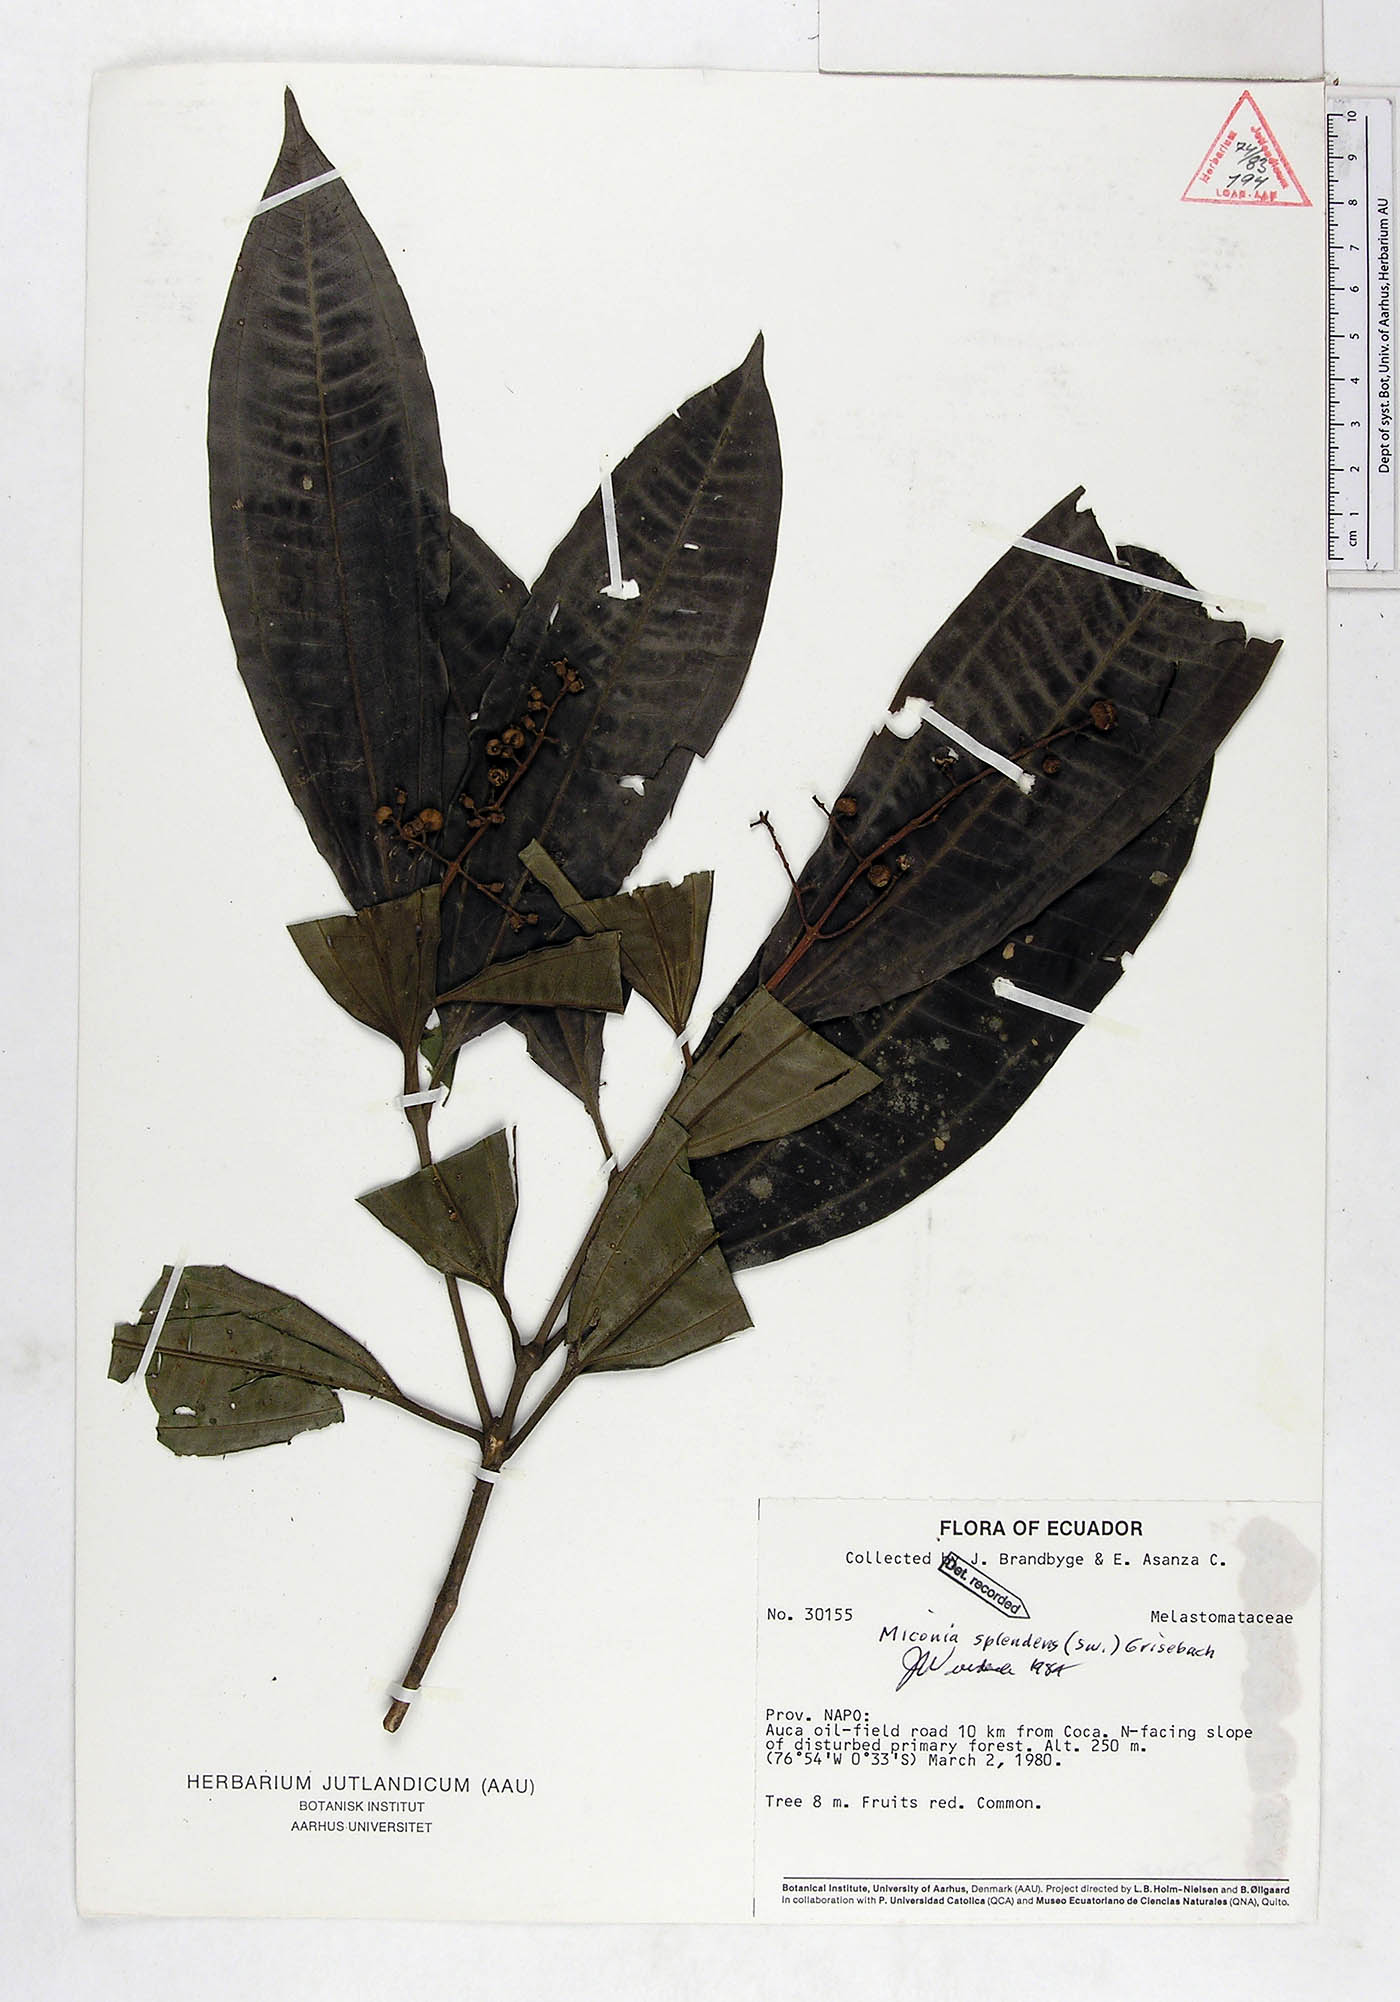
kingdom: Plantae
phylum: Tracheophyta
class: Magnoliopsida
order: Myrtales
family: Melastomataceae
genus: Miconia
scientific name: Miconia splendens
